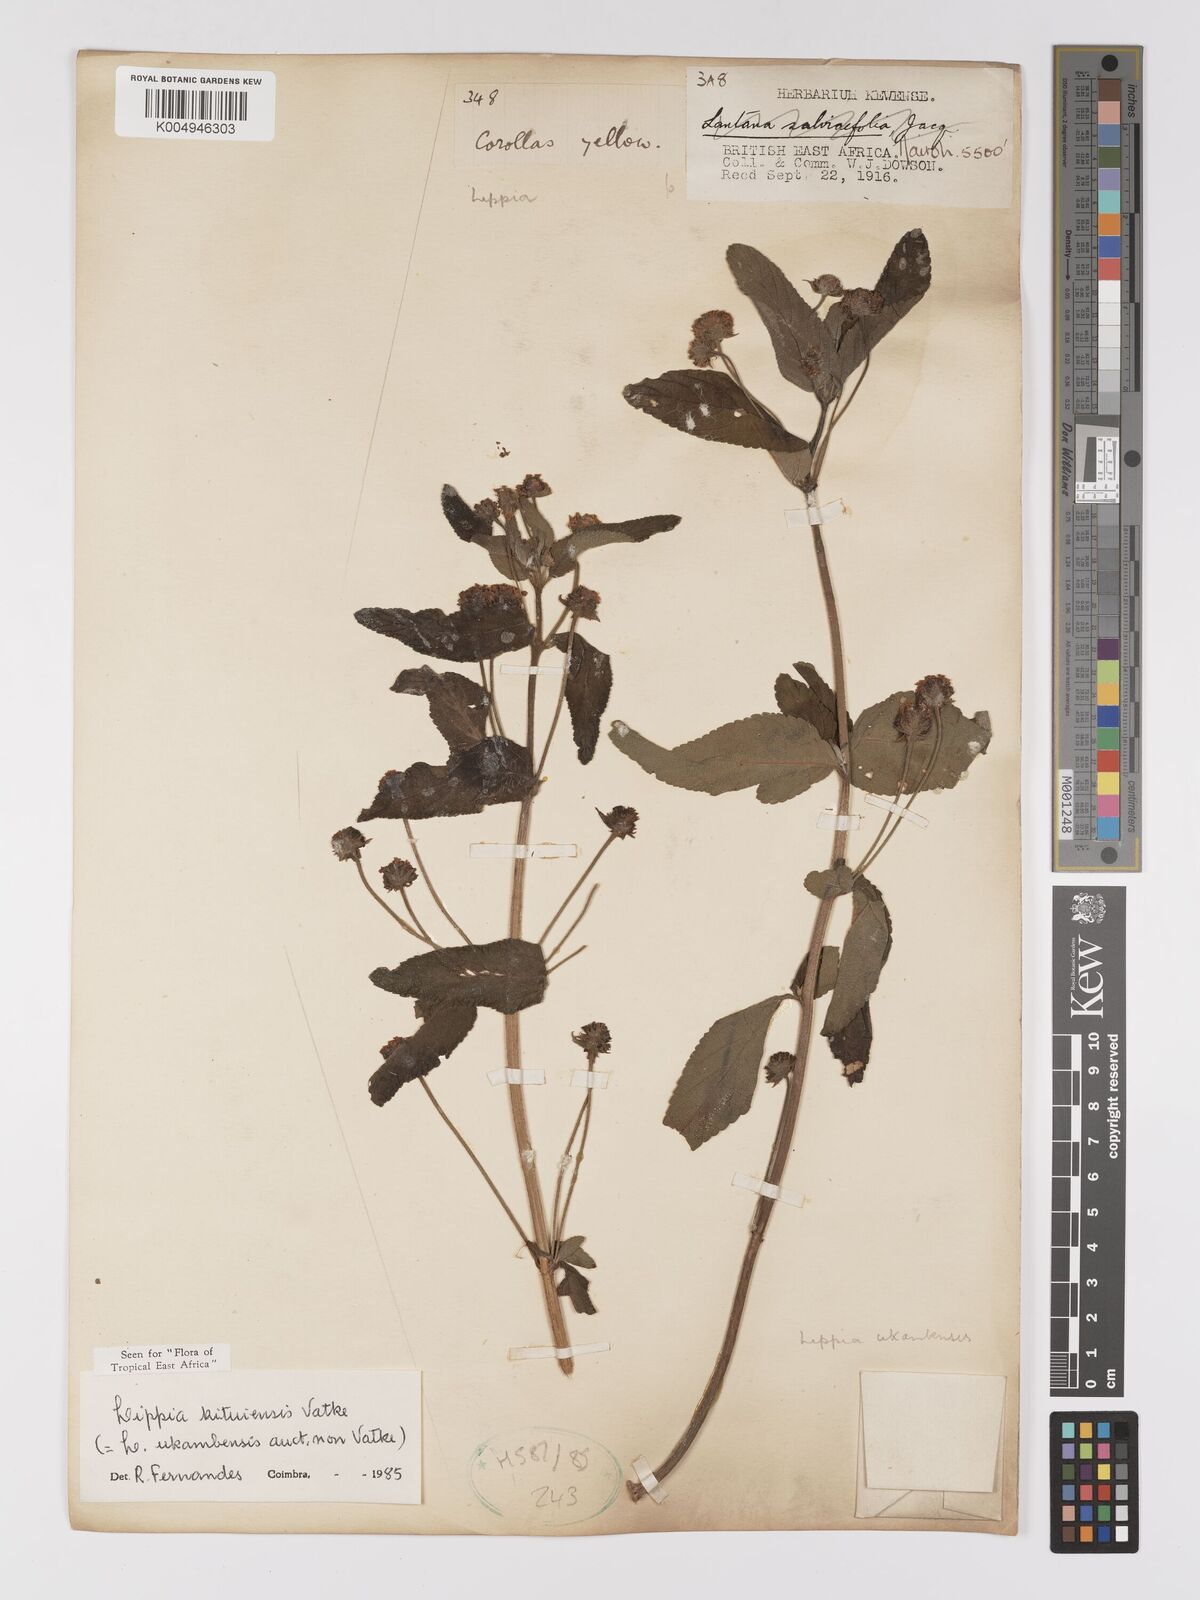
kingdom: Plantae
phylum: Tracheophyta
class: Magnoliopsida
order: Lamiales
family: Verbenaceae
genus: Lippia
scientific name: Lippia kituiensis
